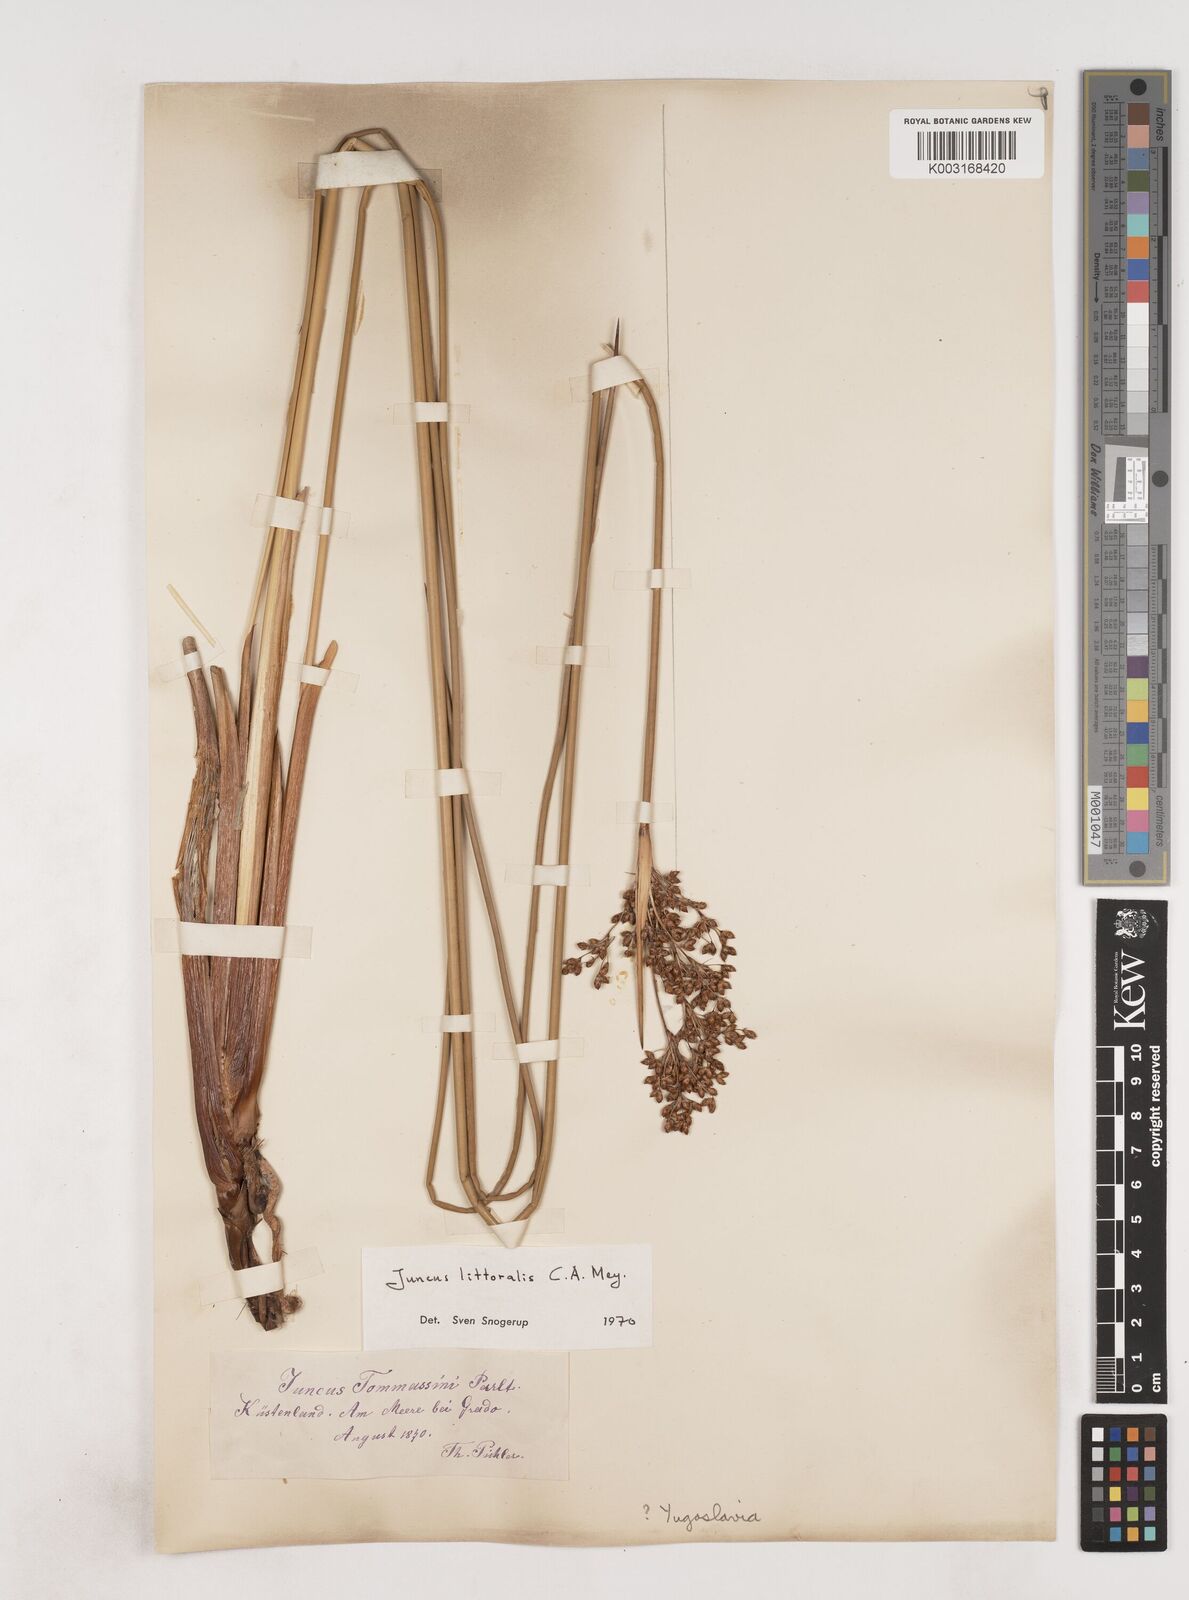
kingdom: Plantae
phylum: Tracheophyta
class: Liliopsida
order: Poales
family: Juncaceae
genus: Juncus
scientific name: Juncus
